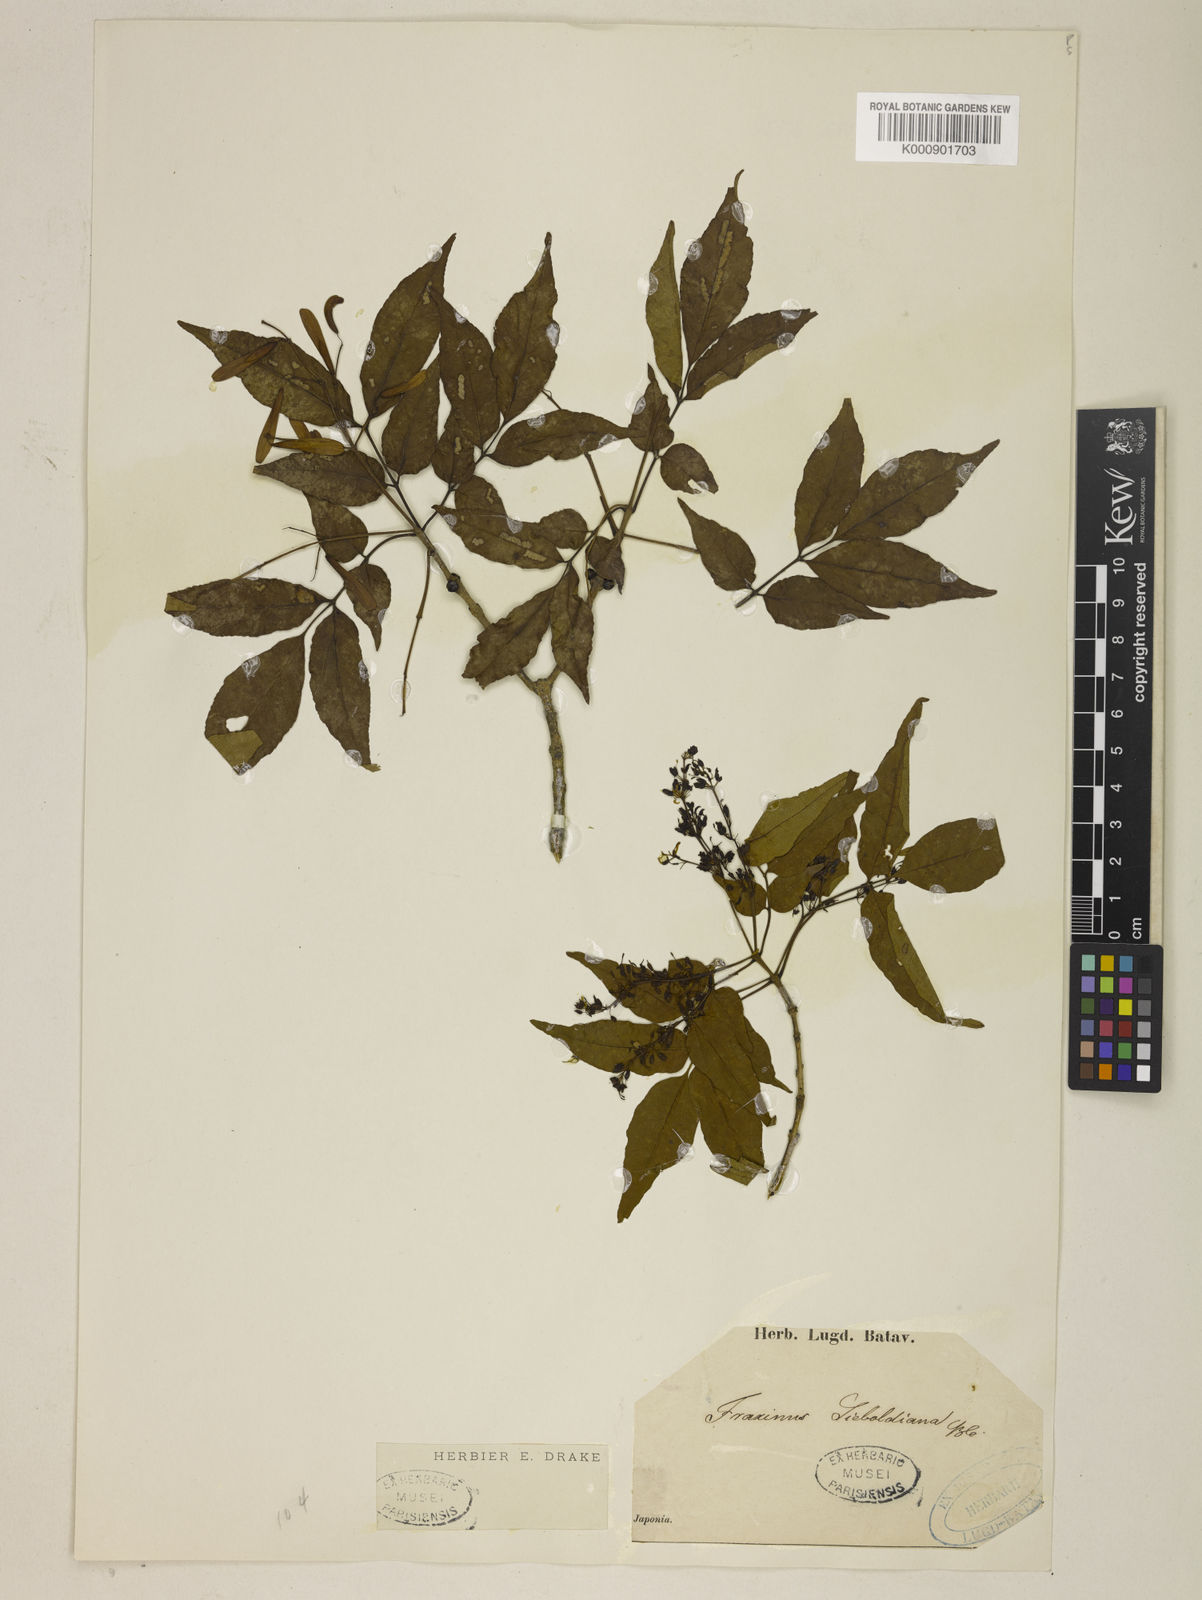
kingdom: Plantae
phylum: Tracheophyta
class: Magnoliopsida
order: Lamiales
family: Oleaceae
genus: Fraxinus
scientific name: Fraxinus sieboldiana
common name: Chinese flowering ash
